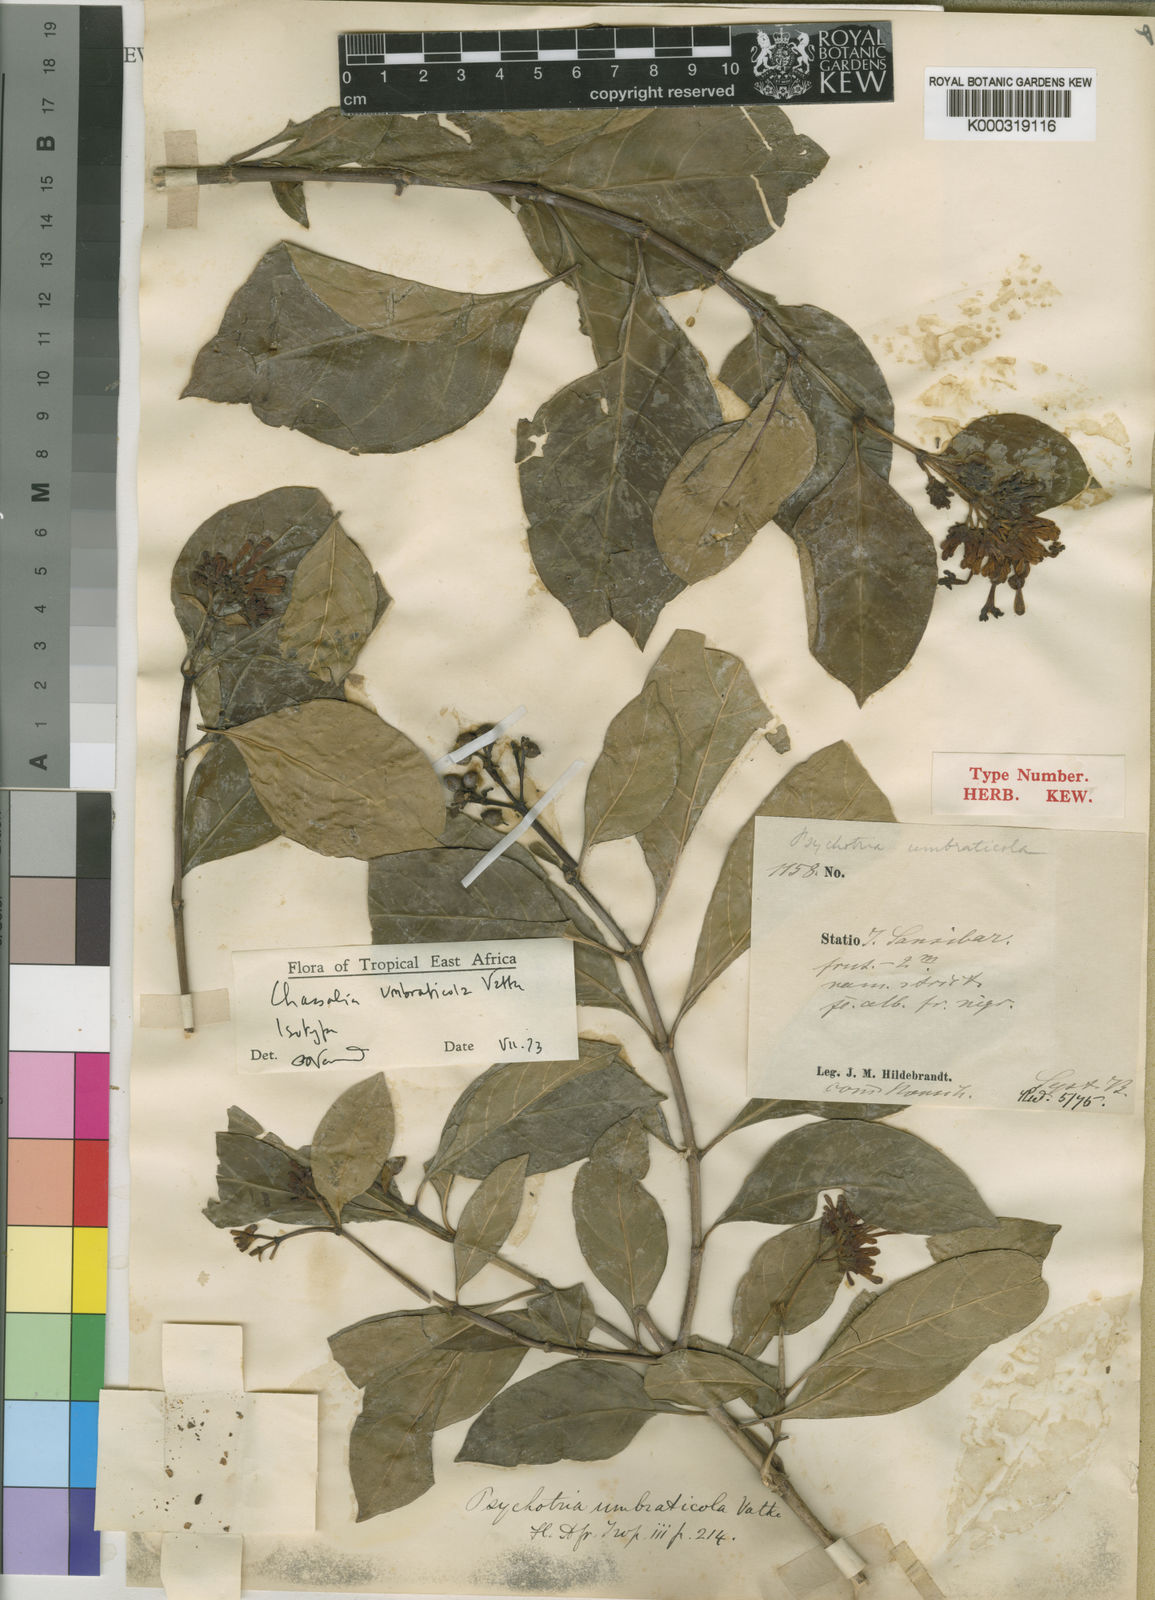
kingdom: Plantae
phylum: Tracheophyta
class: Magnoliopsida
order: Gentianales
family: Rubiaceae
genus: Chassalia
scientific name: Chassalia umbraticola
